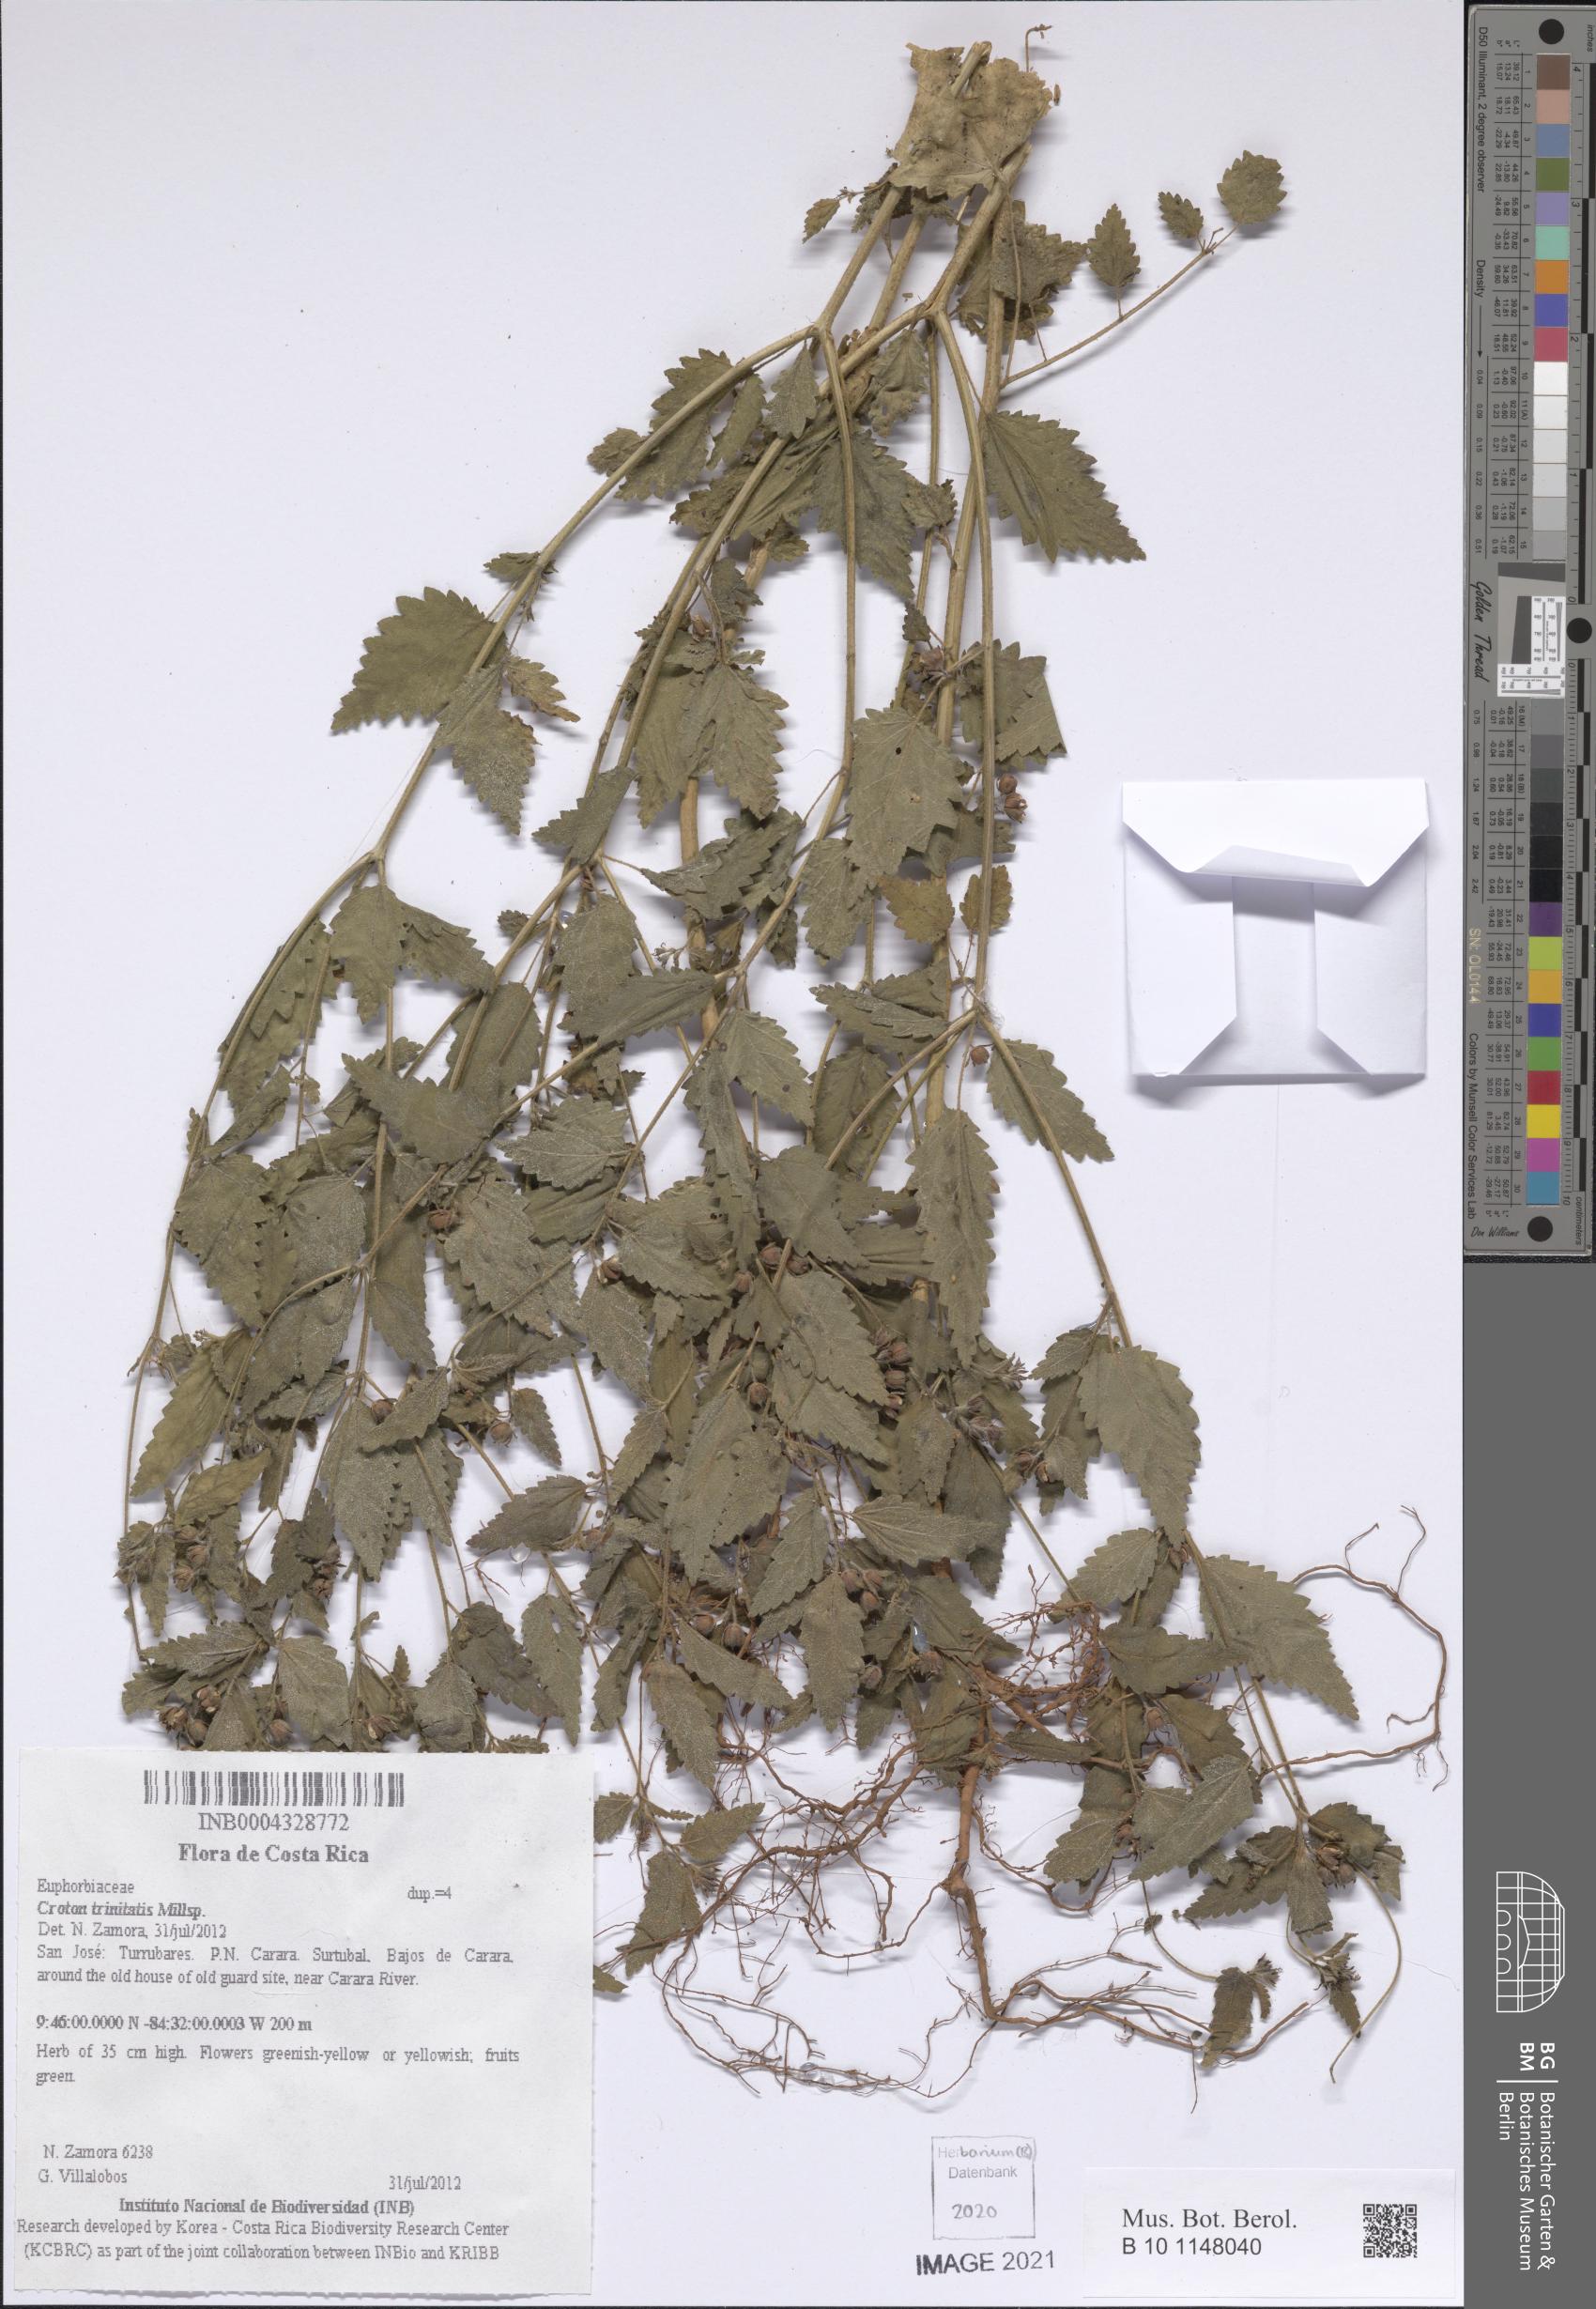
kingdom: Plantae
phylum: Tracheophyta
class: Magnoliopsida
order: Malpighiales
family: Euphorbiaceae
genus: Croton
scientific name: Croton trinitatis
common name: Roadside croton
